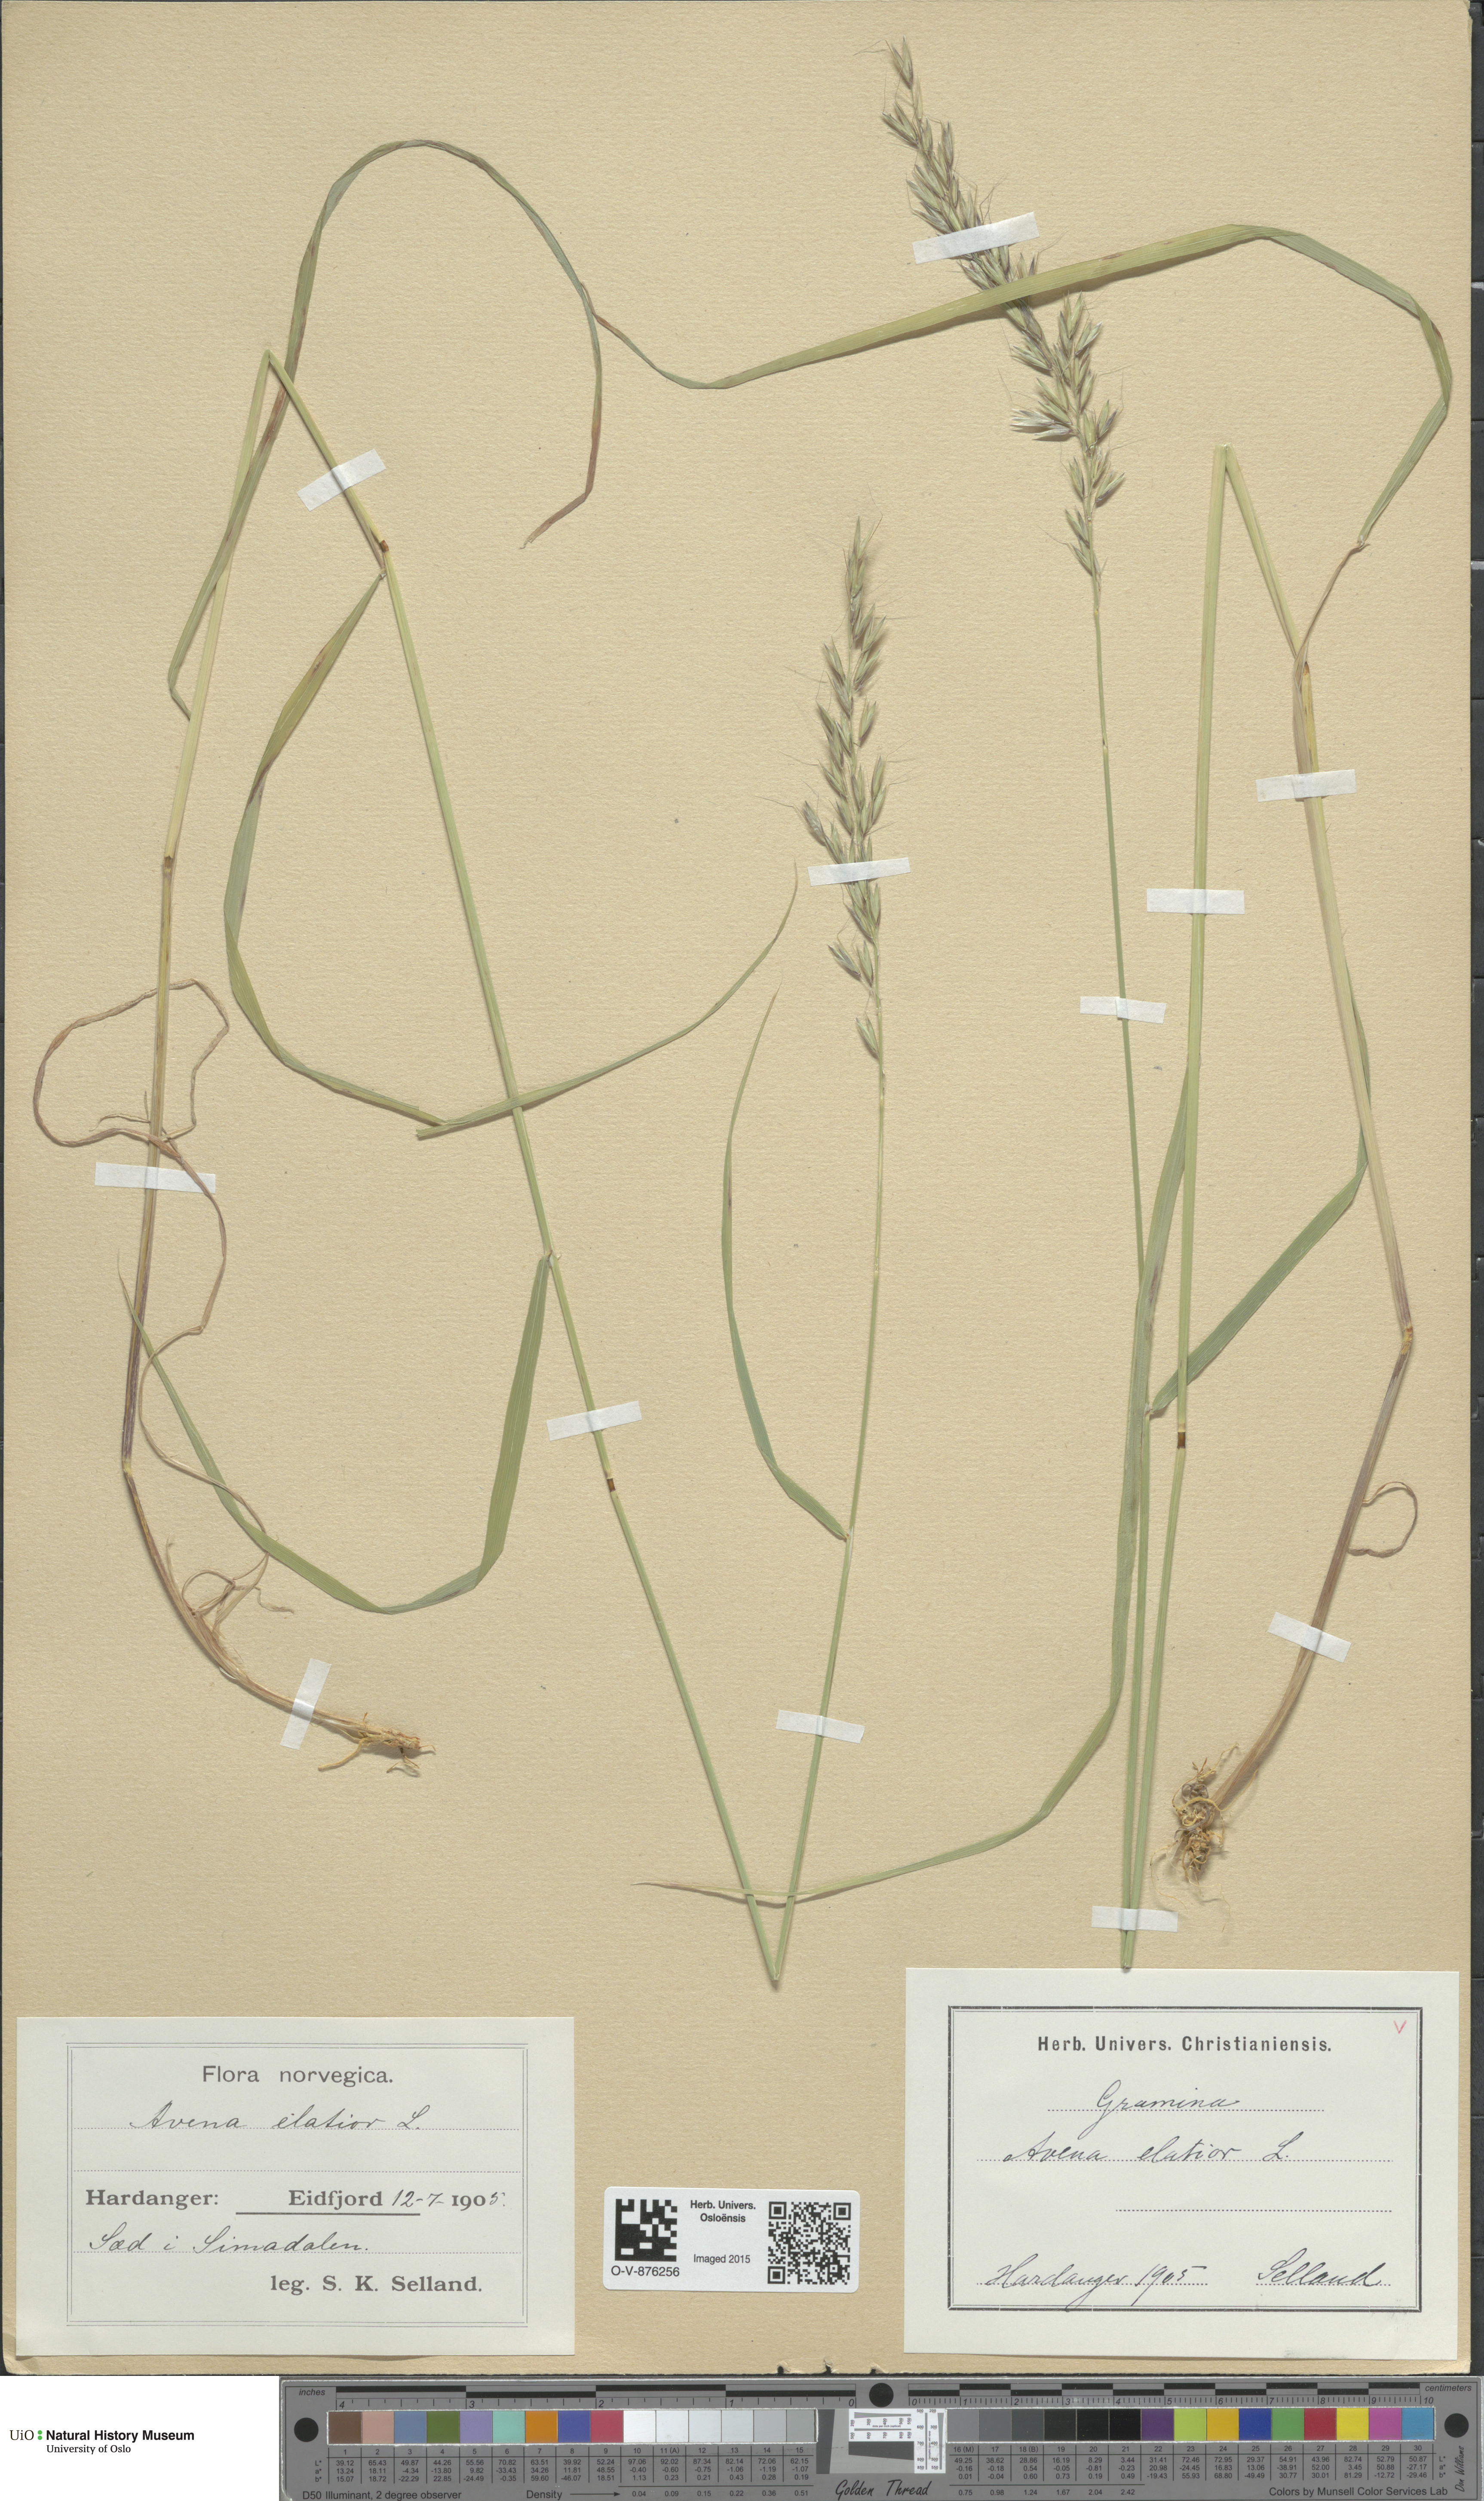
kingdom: Plantae
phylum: Tracheophyta
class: Liliopsida
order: Poales
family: Poaceae
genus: Arrhenatherum
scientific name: Arrhenatherum elatius
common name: Tall oatgrass
